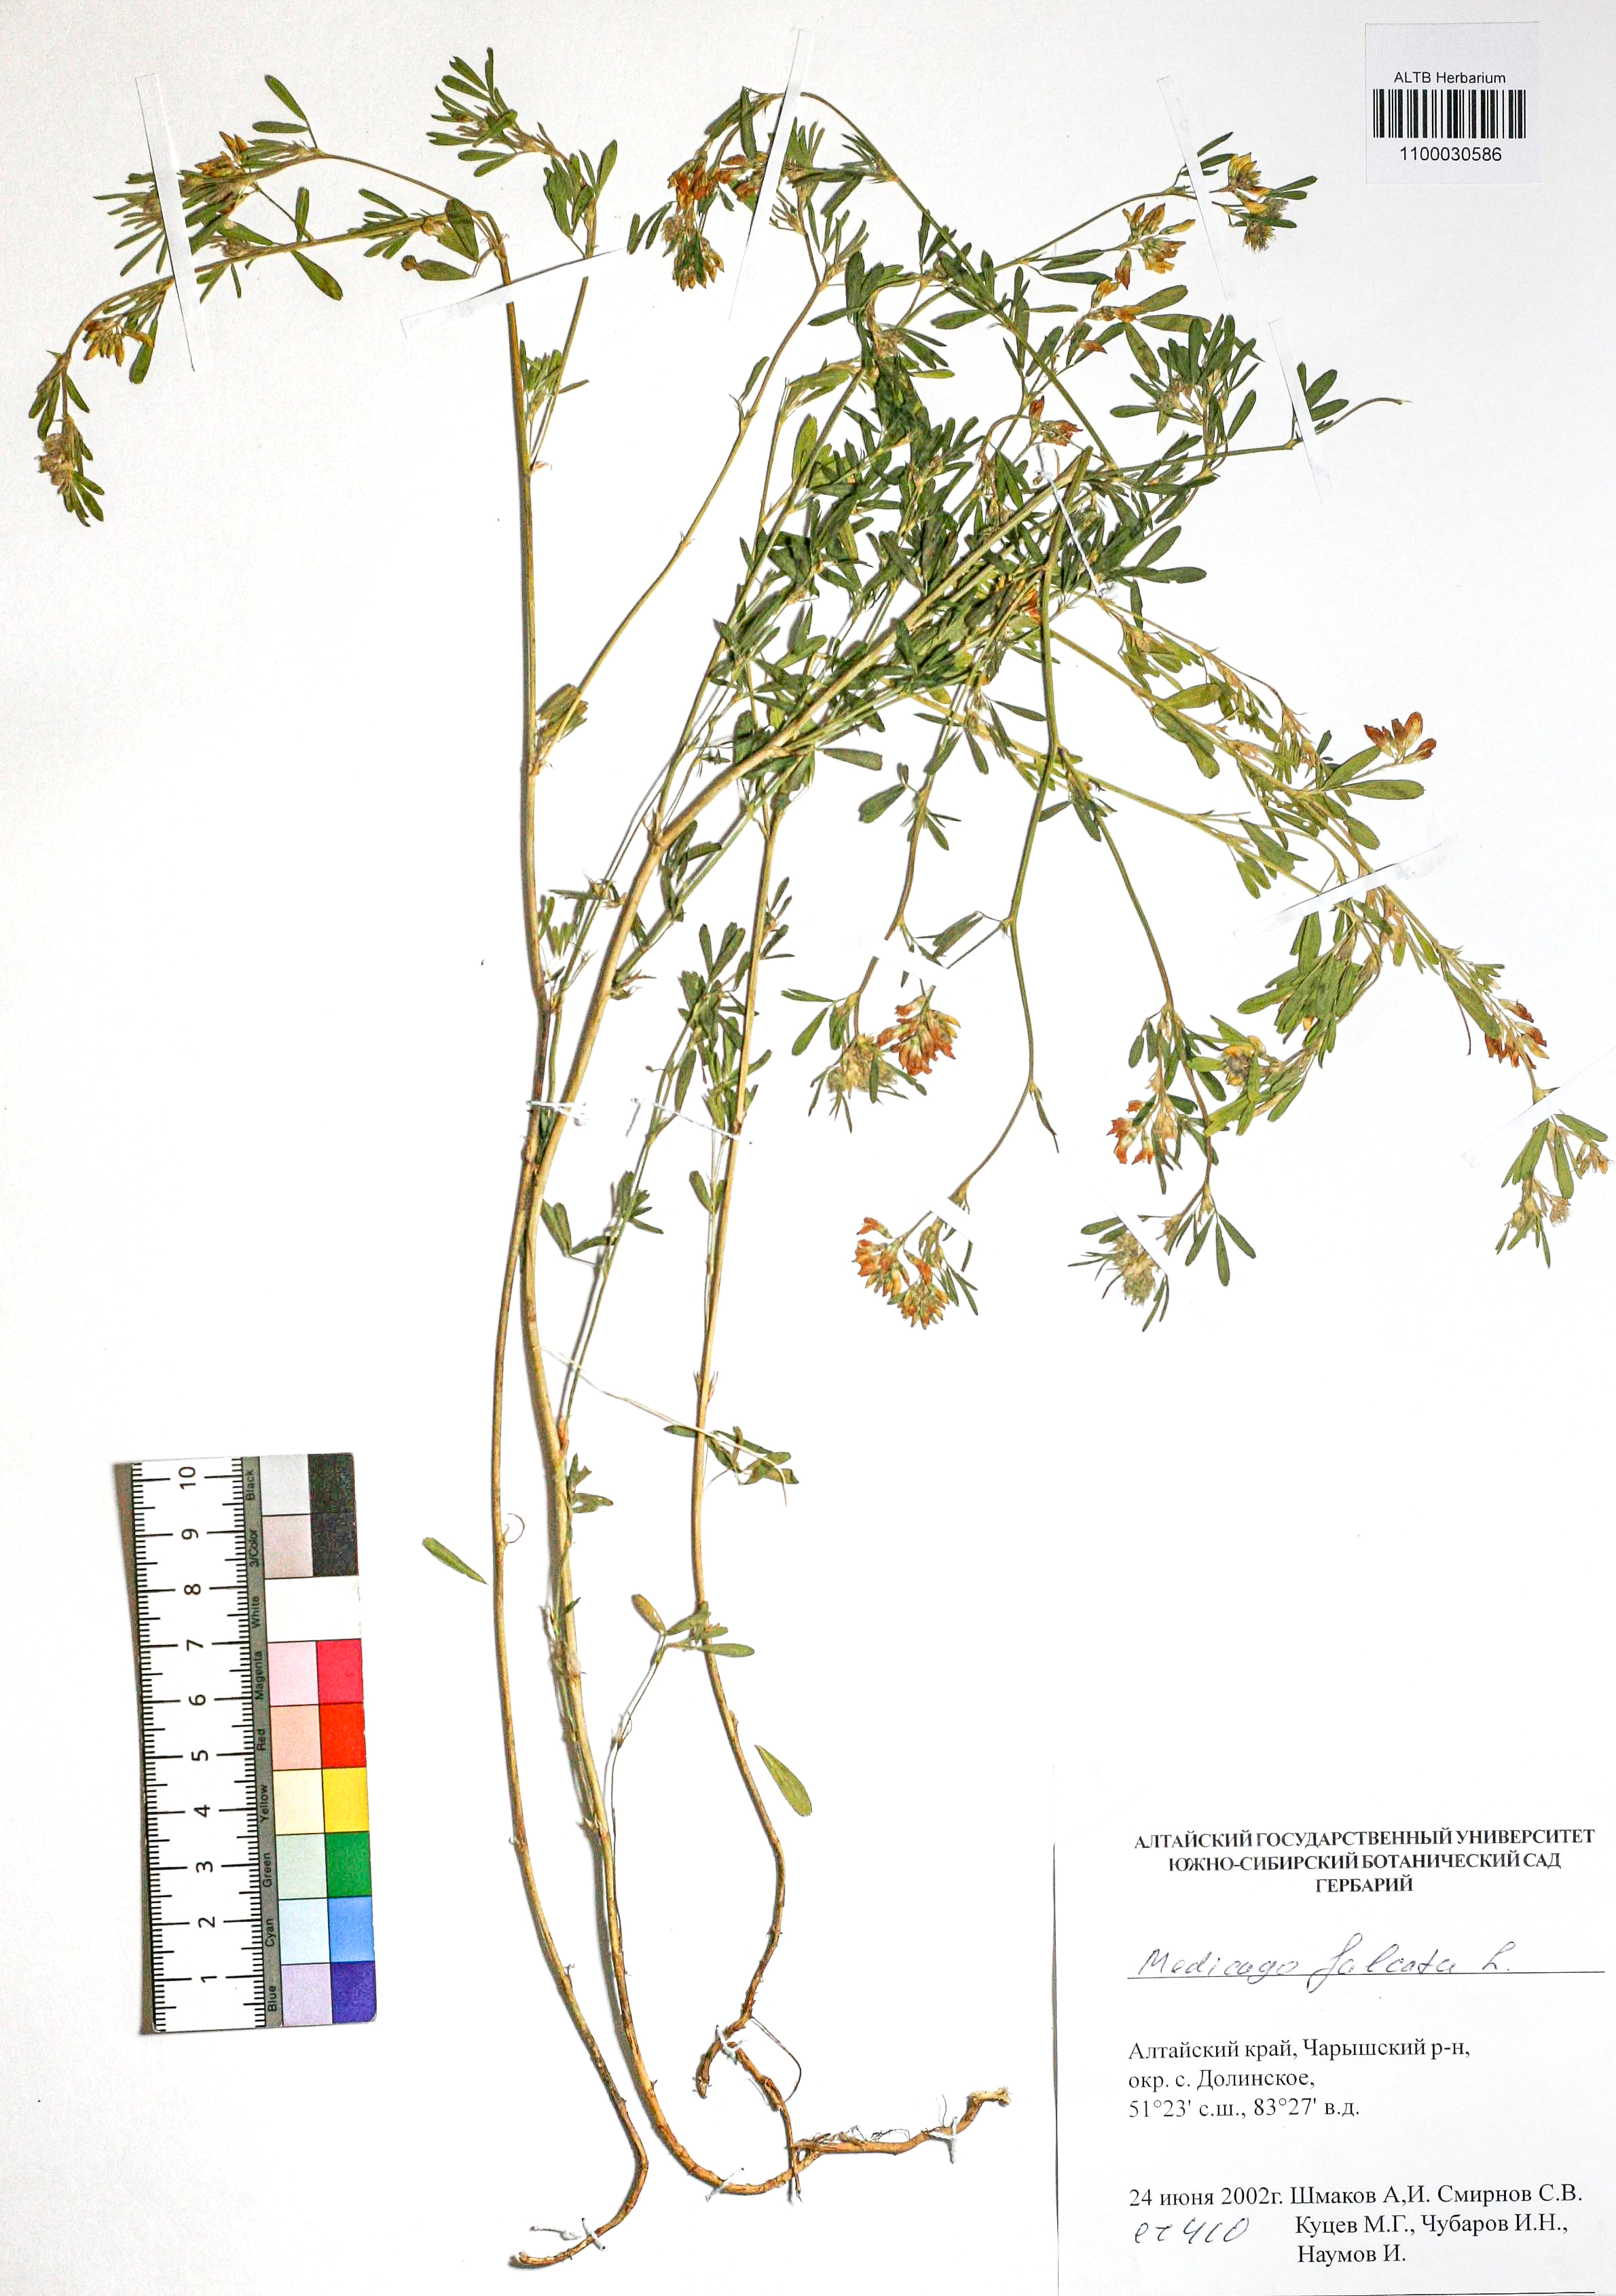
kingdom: Plantae
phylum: Tracheophyta
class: Magnoliopsida
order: Fabales
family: Fabaceae
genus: Medicago
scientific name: Medicago falcata
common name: Sickle medick
